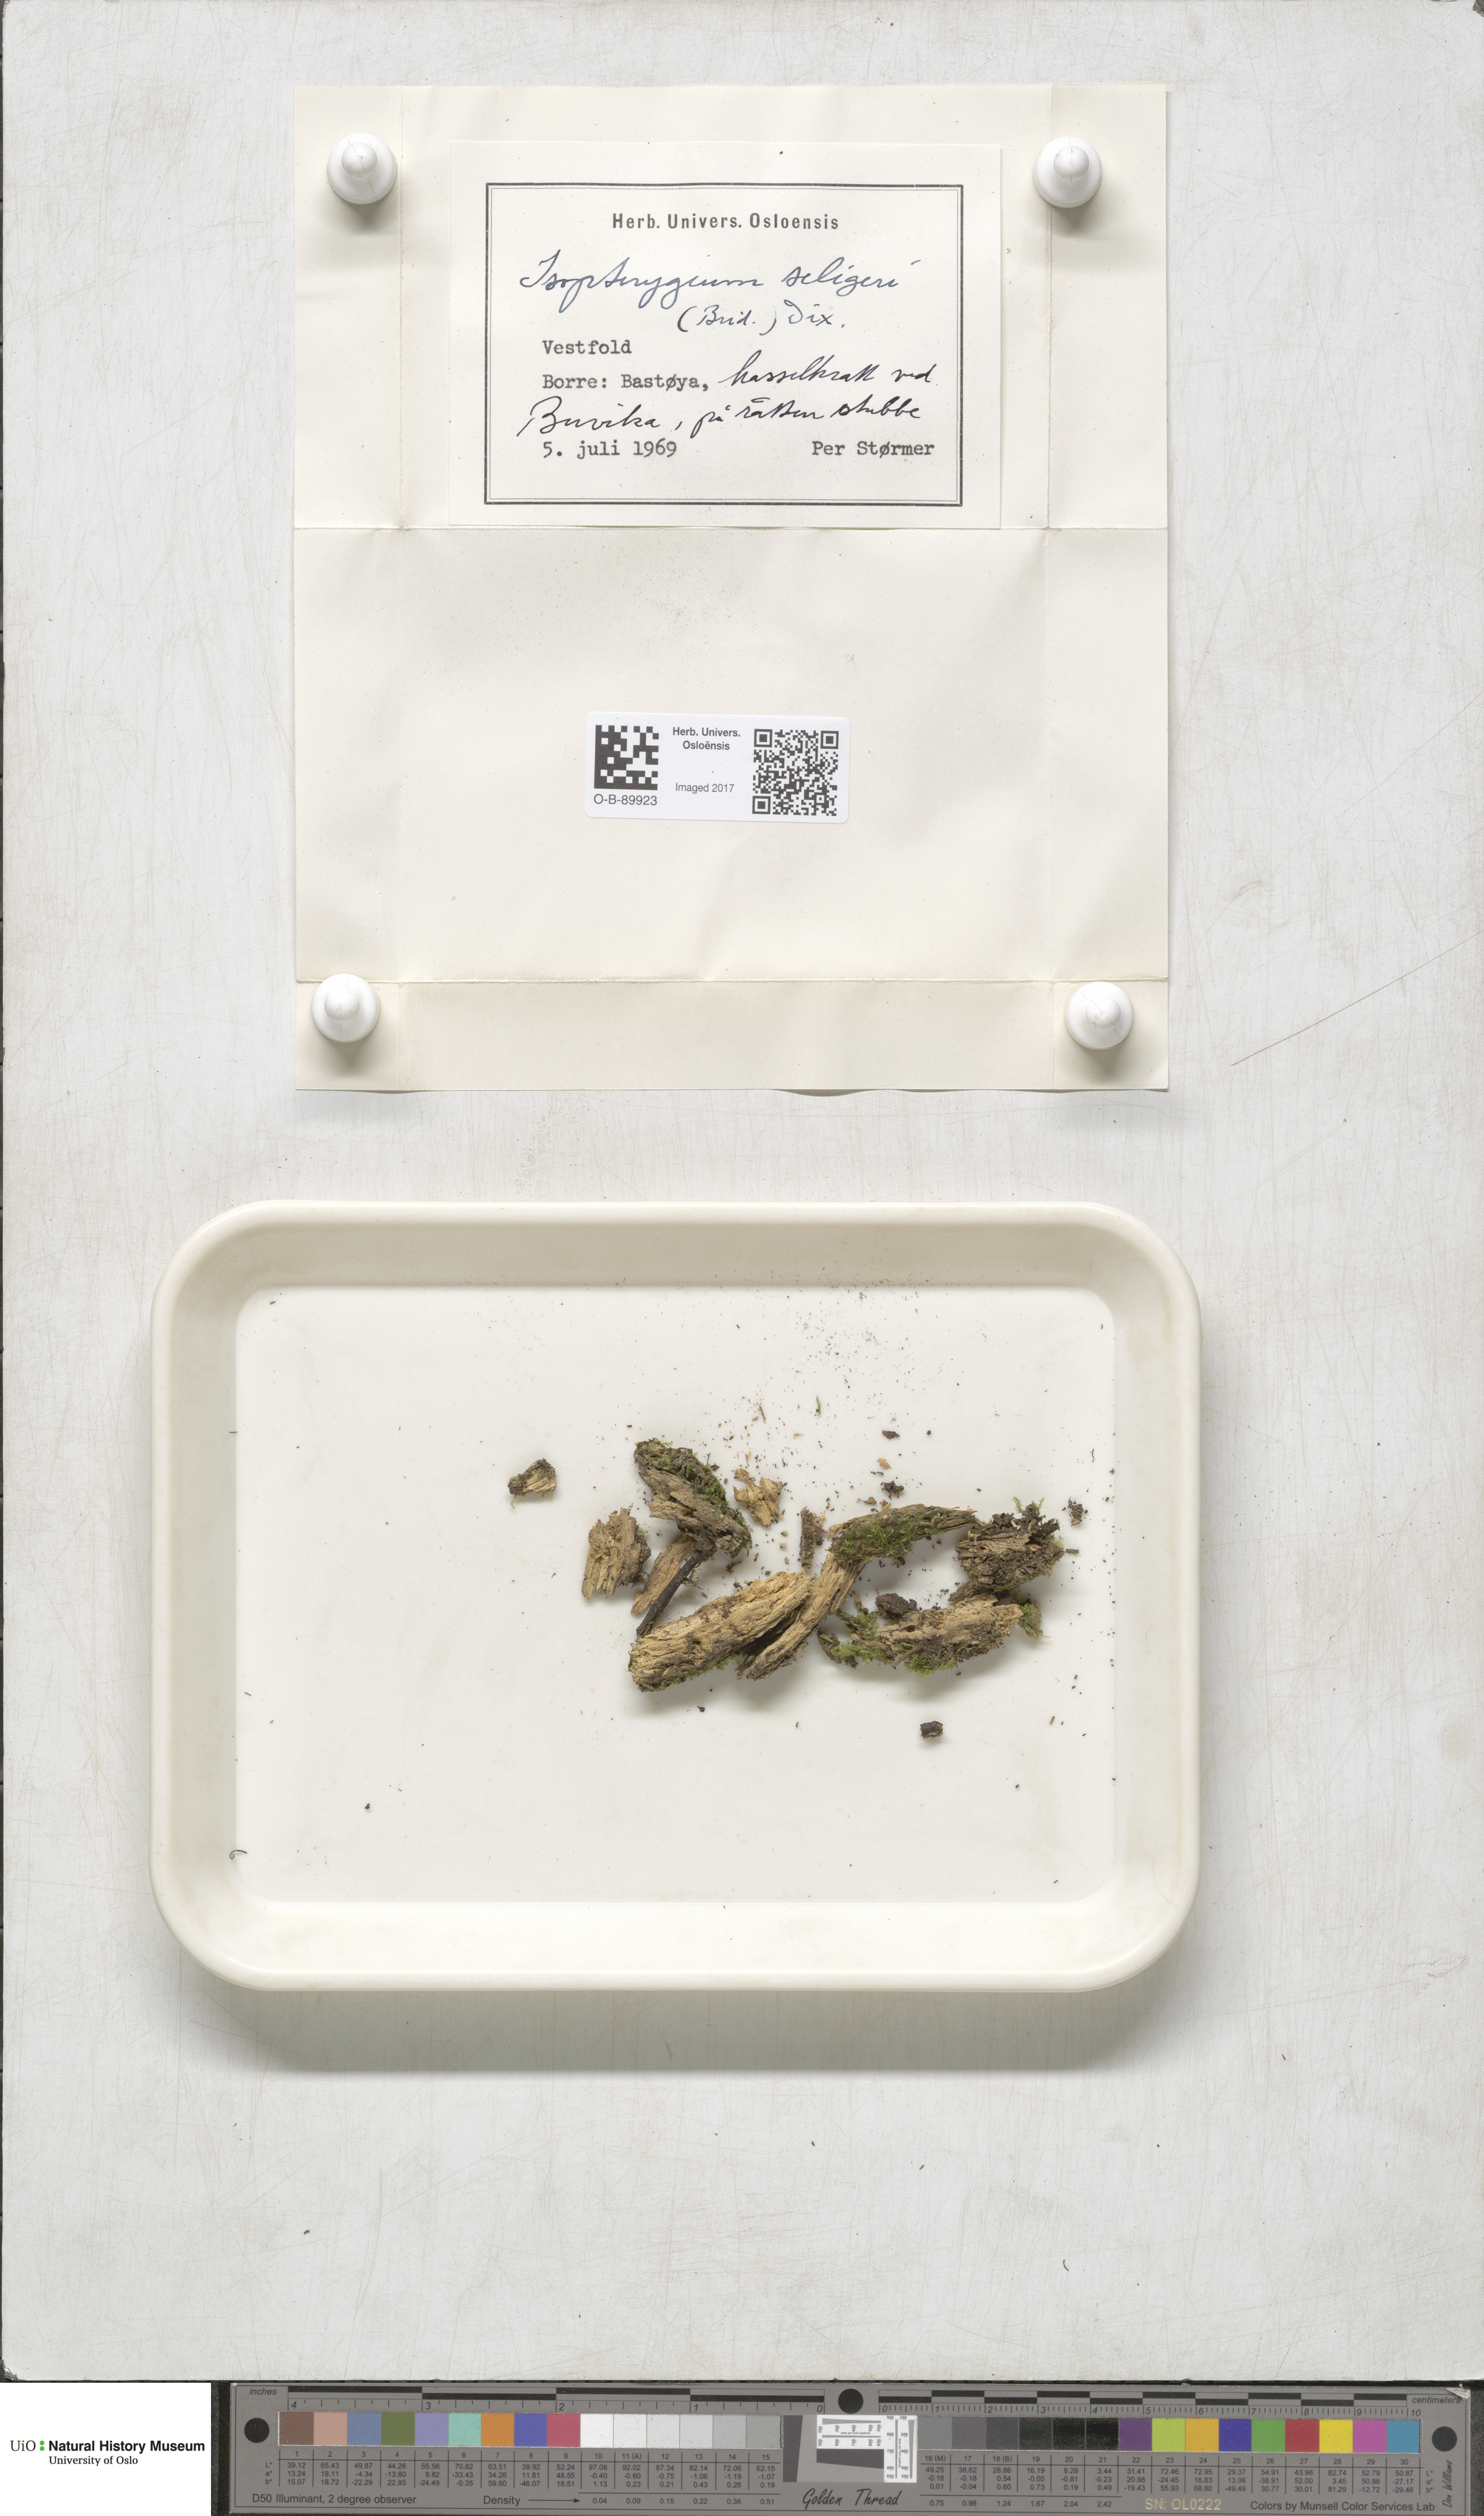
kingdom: Plantae
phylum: Bryophyta
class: Bryopsida
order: Hypnales
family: Plagiotheciaceae
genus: Herzogiella
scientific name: Herzogiella seligeri
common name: Silesian feather-moss
